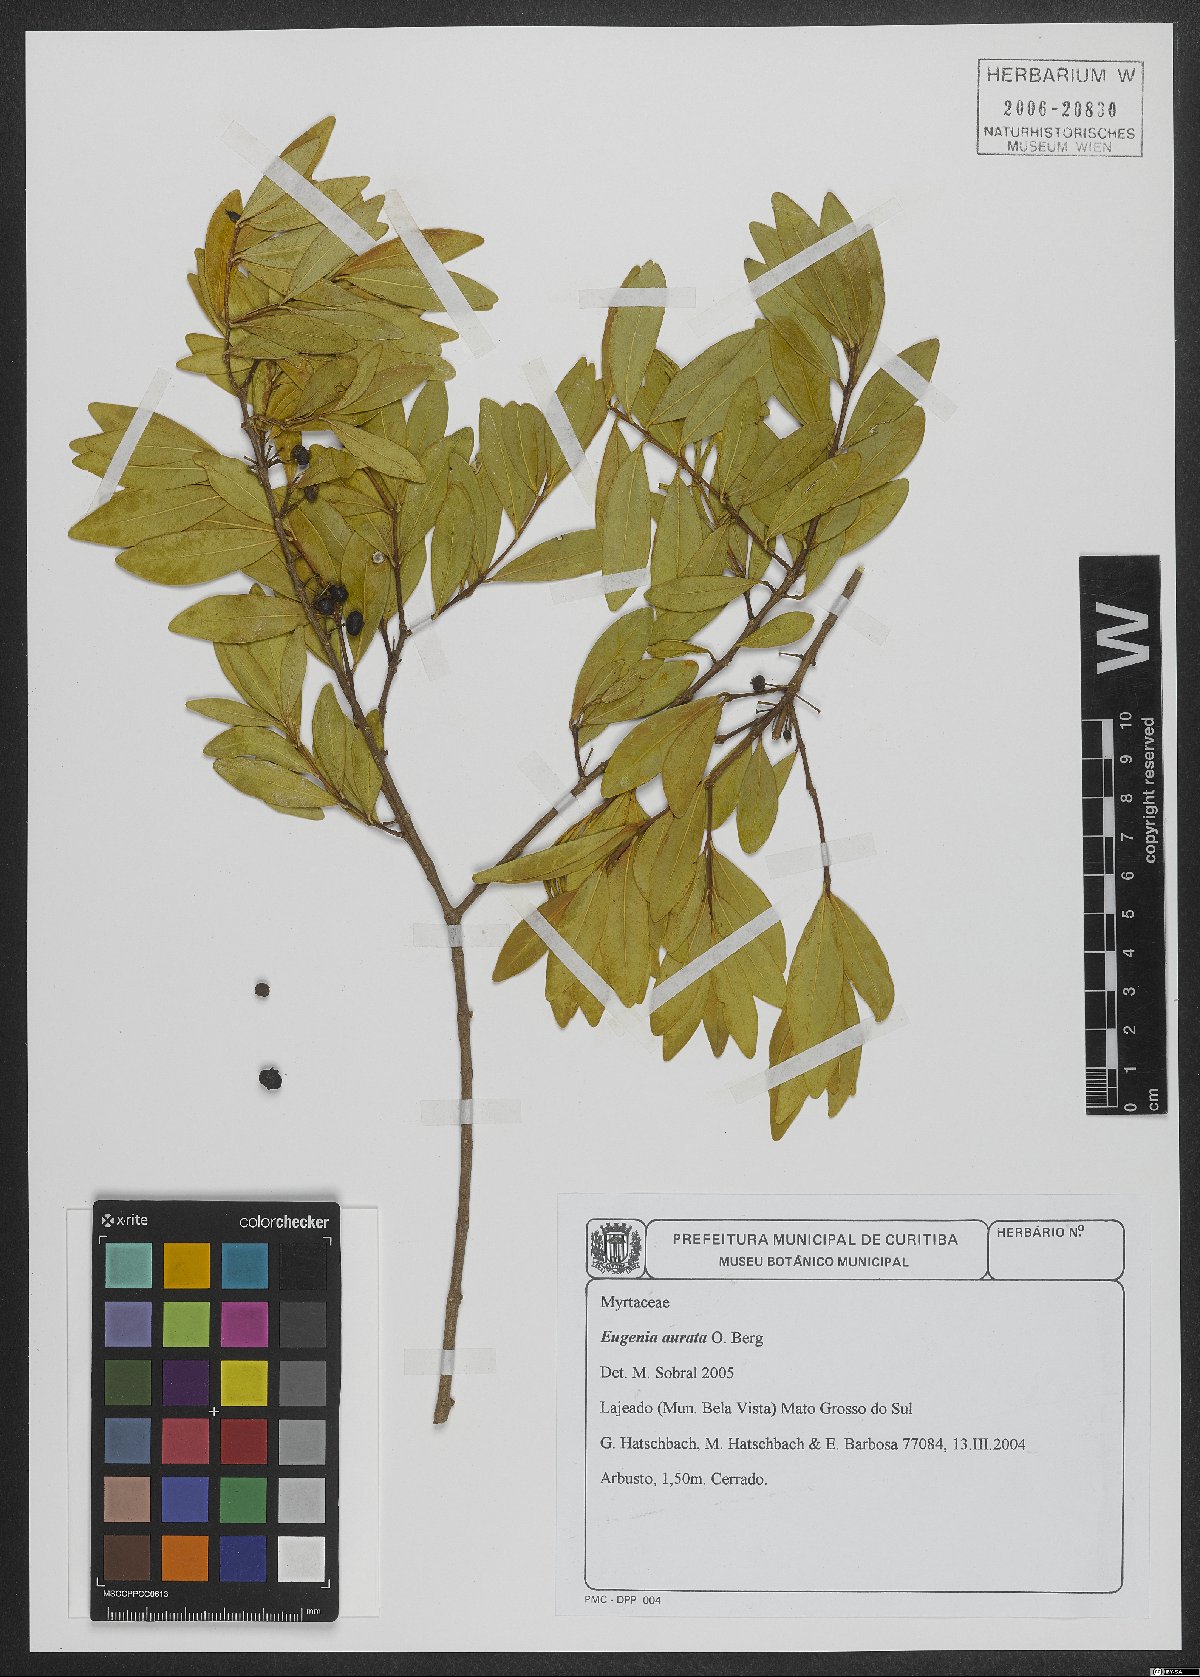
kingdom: Plantae
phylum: Tracheophyta
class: Magnoliopsida
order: Myrtales
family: Myrtaceae
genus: Eugenia
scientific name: Eugenia aurata
